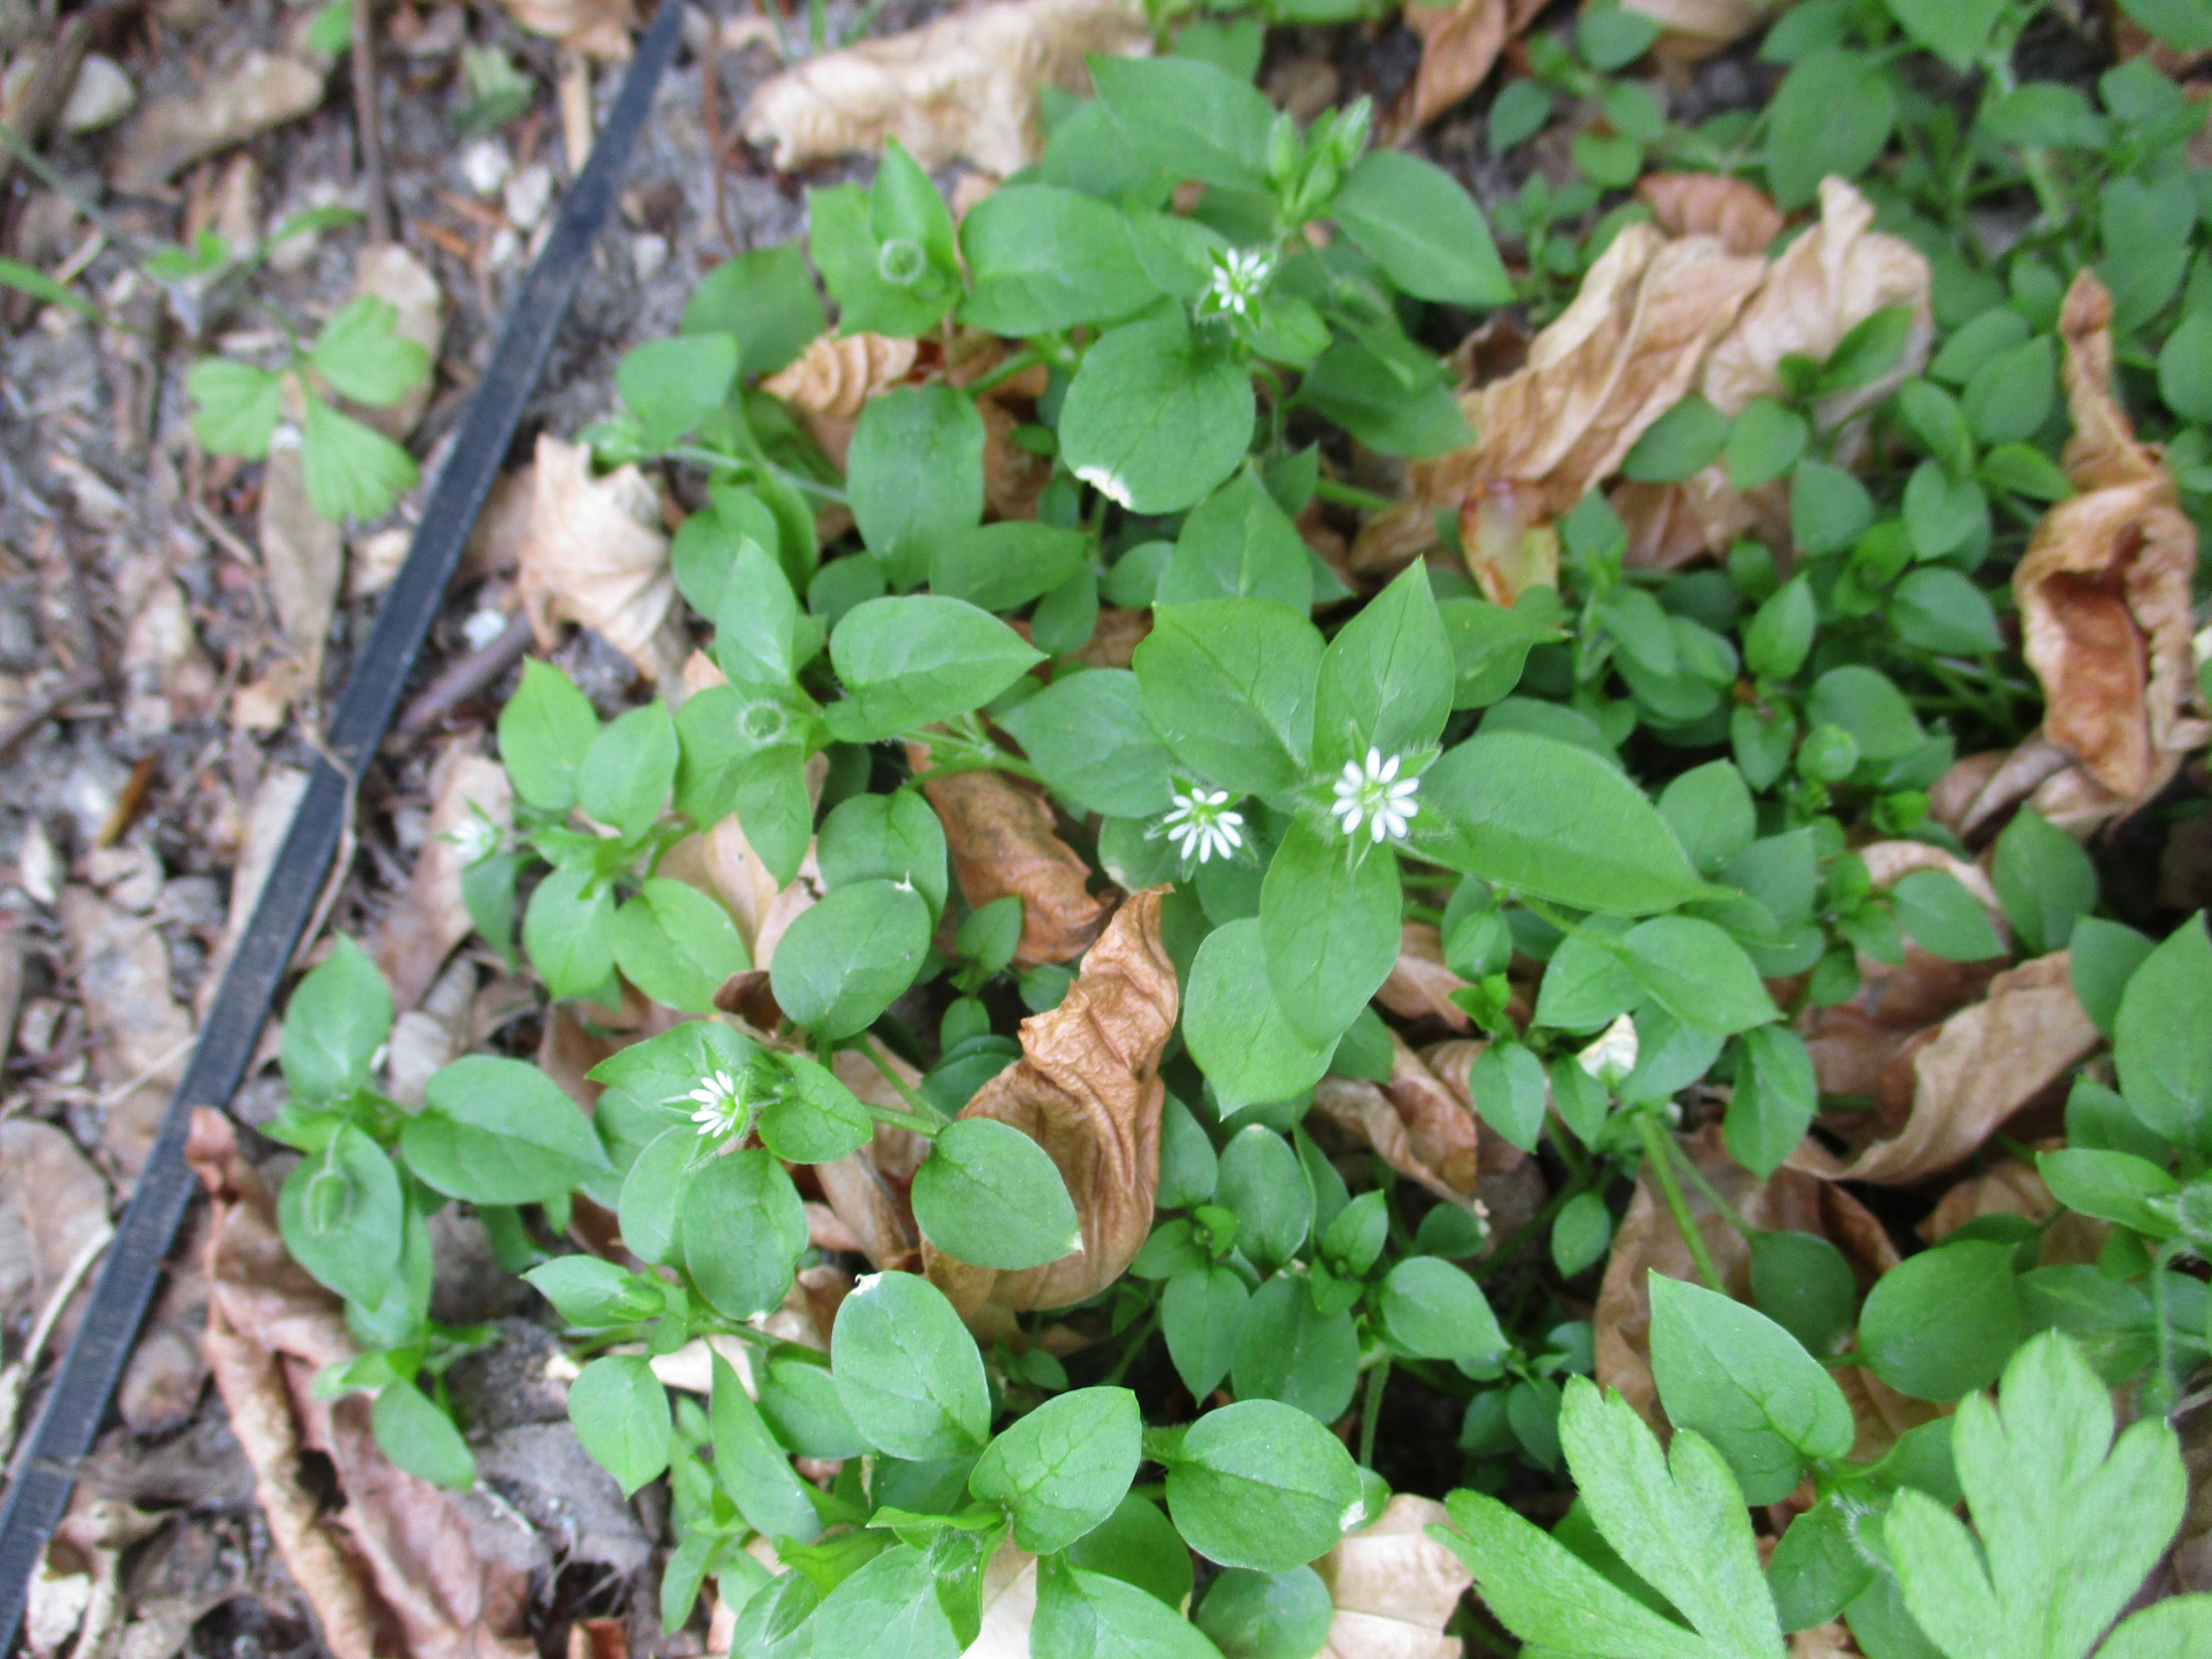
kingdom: Plantae
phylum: Tracheophyta
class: Magnoliopsida
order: Caryophyllales
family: Caryophyllaceae
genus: Stellaria
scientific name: Stellaria media
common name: Almindelig fuglegræs
